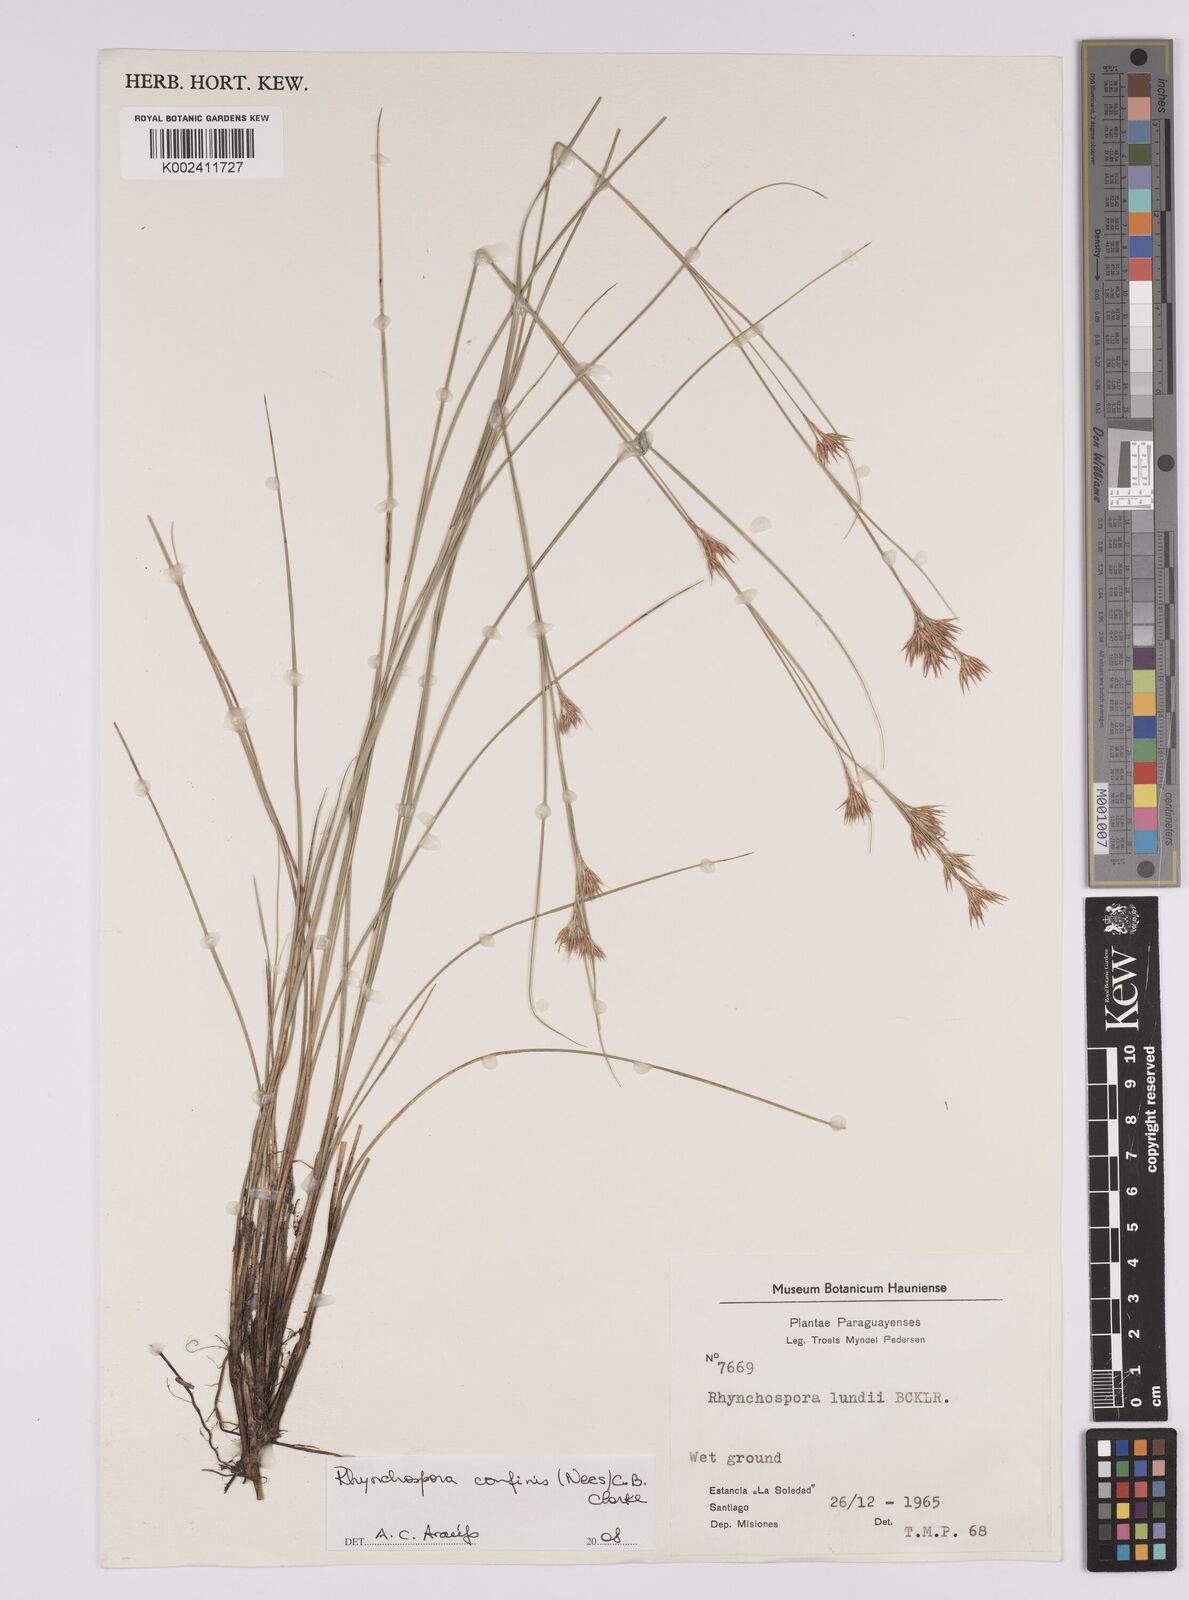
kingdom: Plantae
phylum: Tracheophyta
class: Liliopsida
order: Poales
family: Cyperaceae
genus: Rhynchospora
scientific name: Rhynchospora confinis
